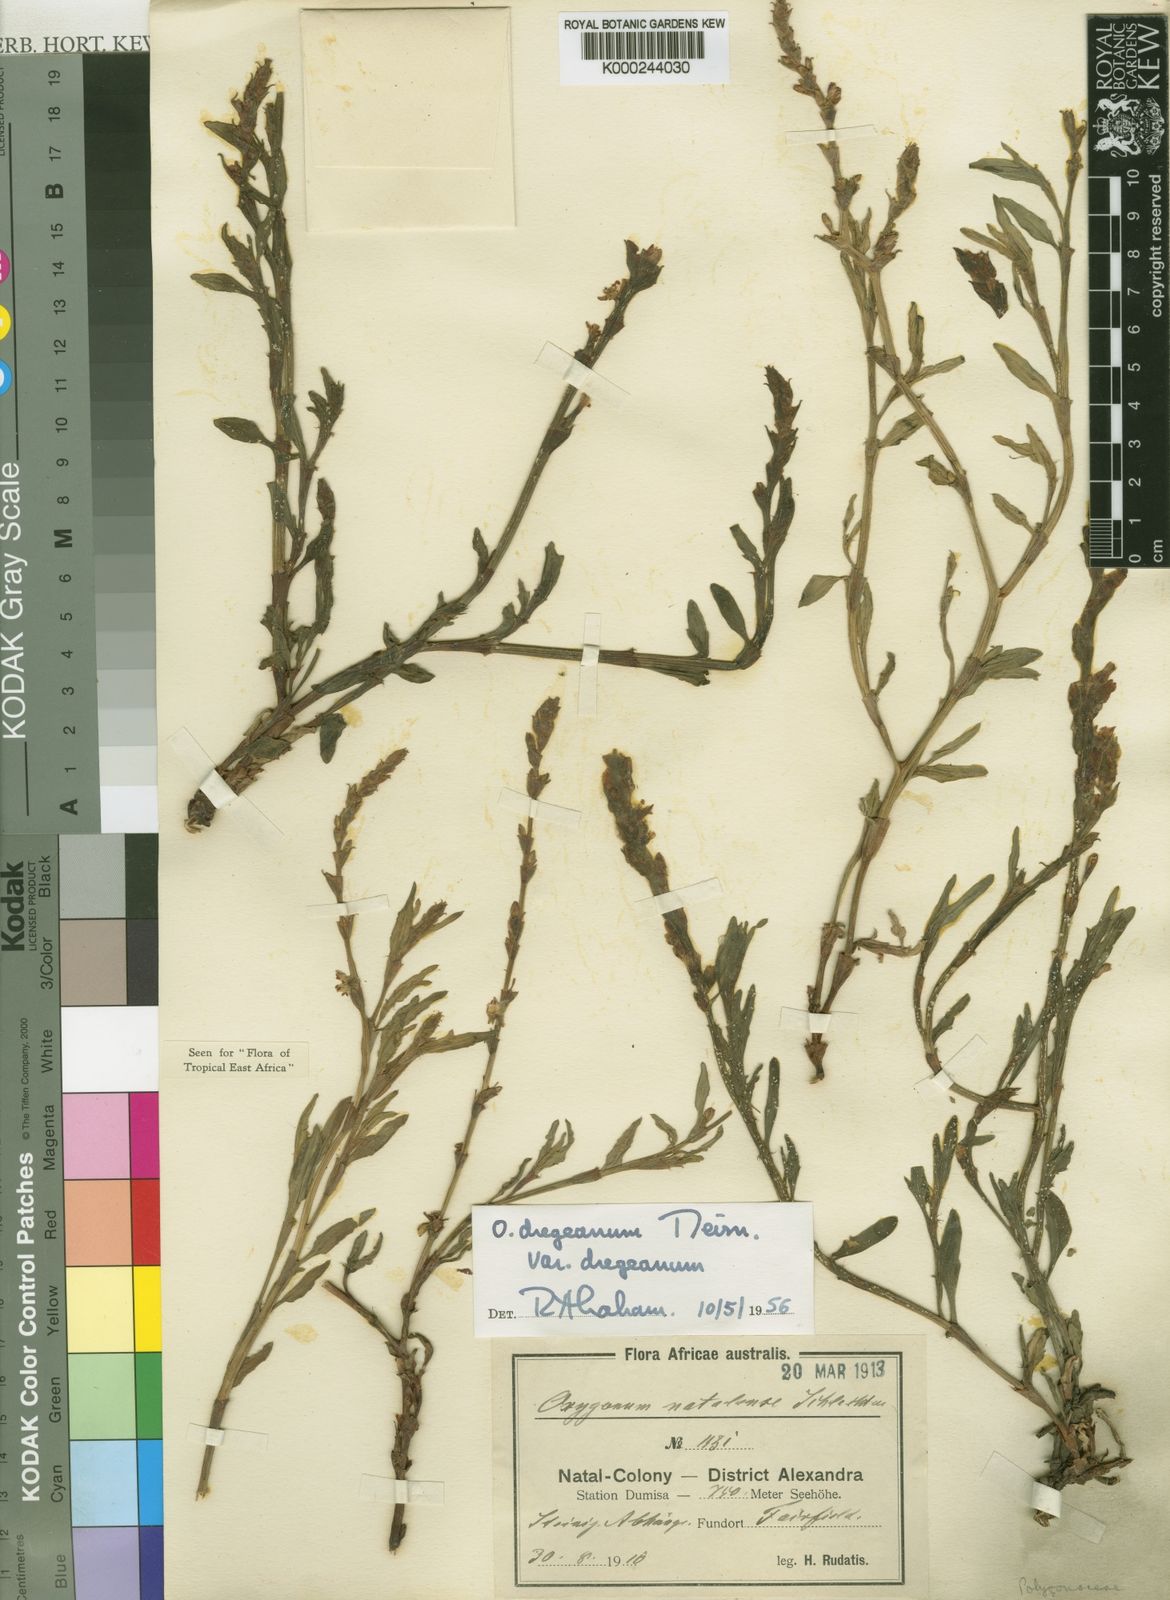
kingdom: Plantae
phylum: Tracheophyta
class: Magnoliopsida
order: Caryophyllales
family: Polygonaceae
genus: Oxygonum
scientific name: Oxygonum dregeanum
